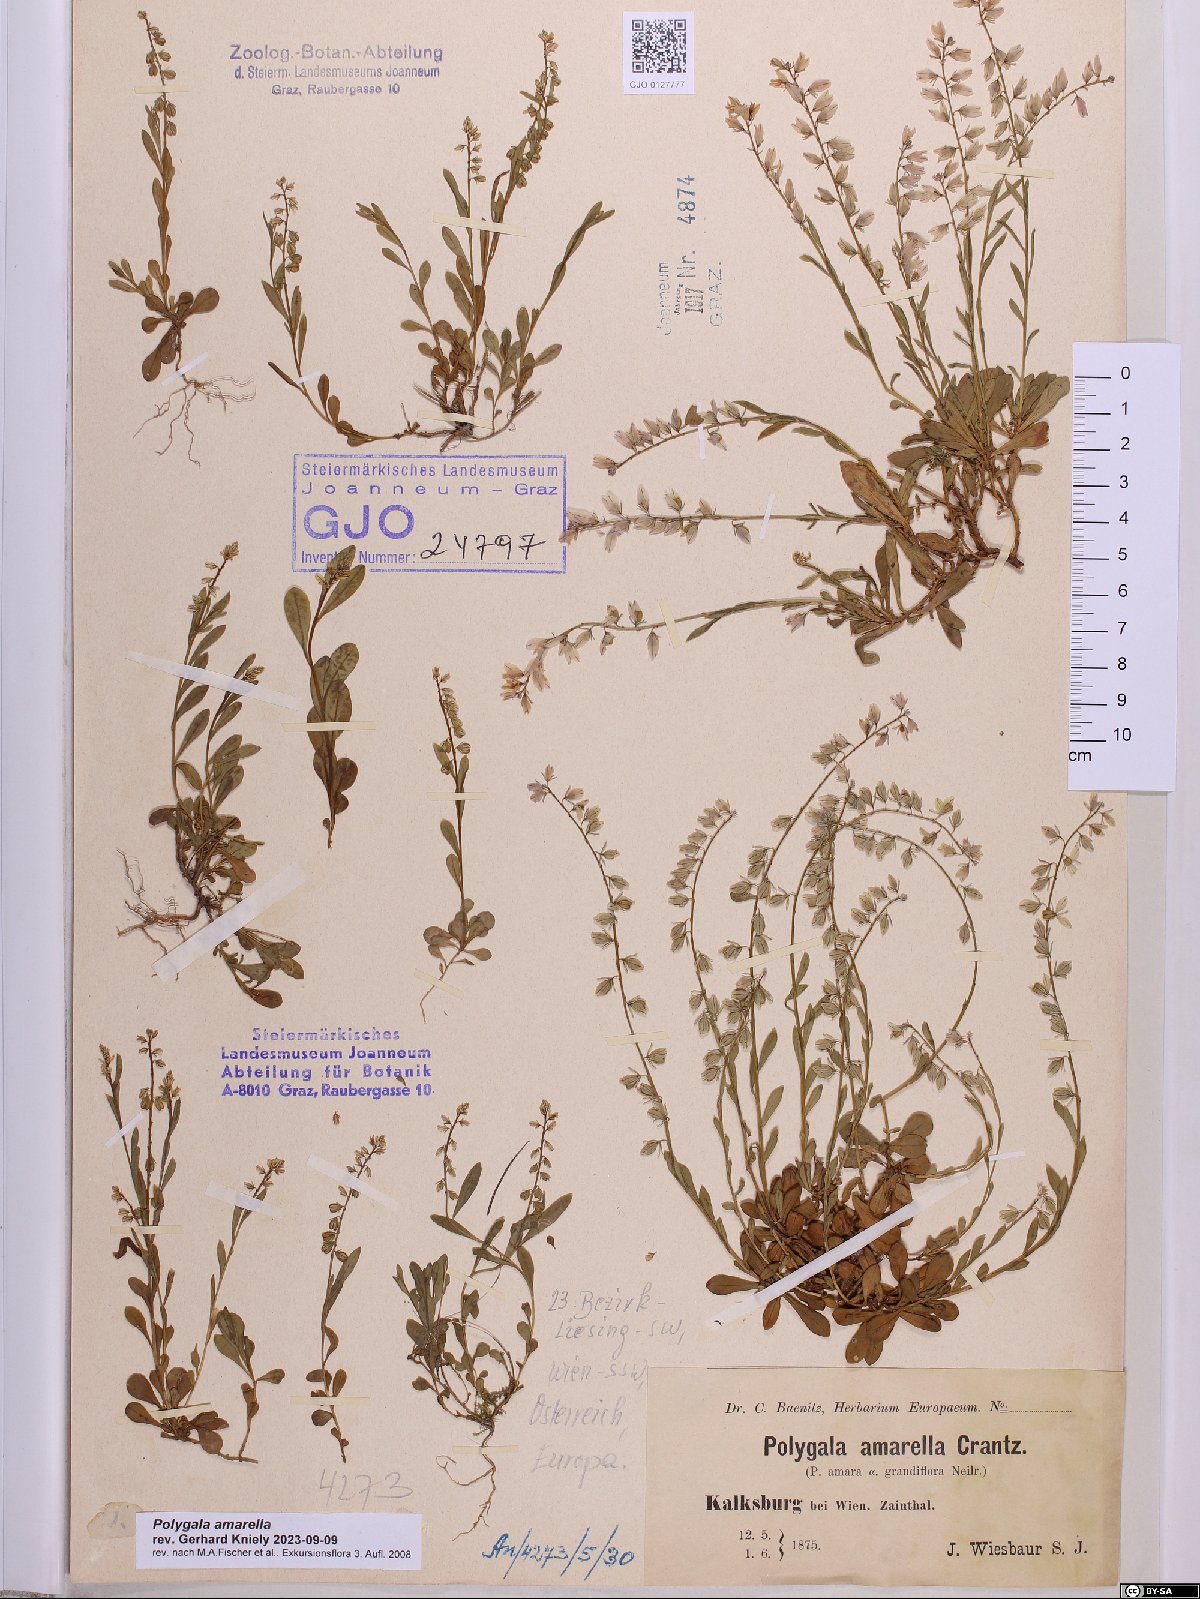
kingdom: Plantae
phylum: Tracheophyta
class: Magnoliopsida
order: Fabales
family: Polygalaceae
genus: Polygala
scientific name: Polygala amarella
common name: Dwarf milkwort
